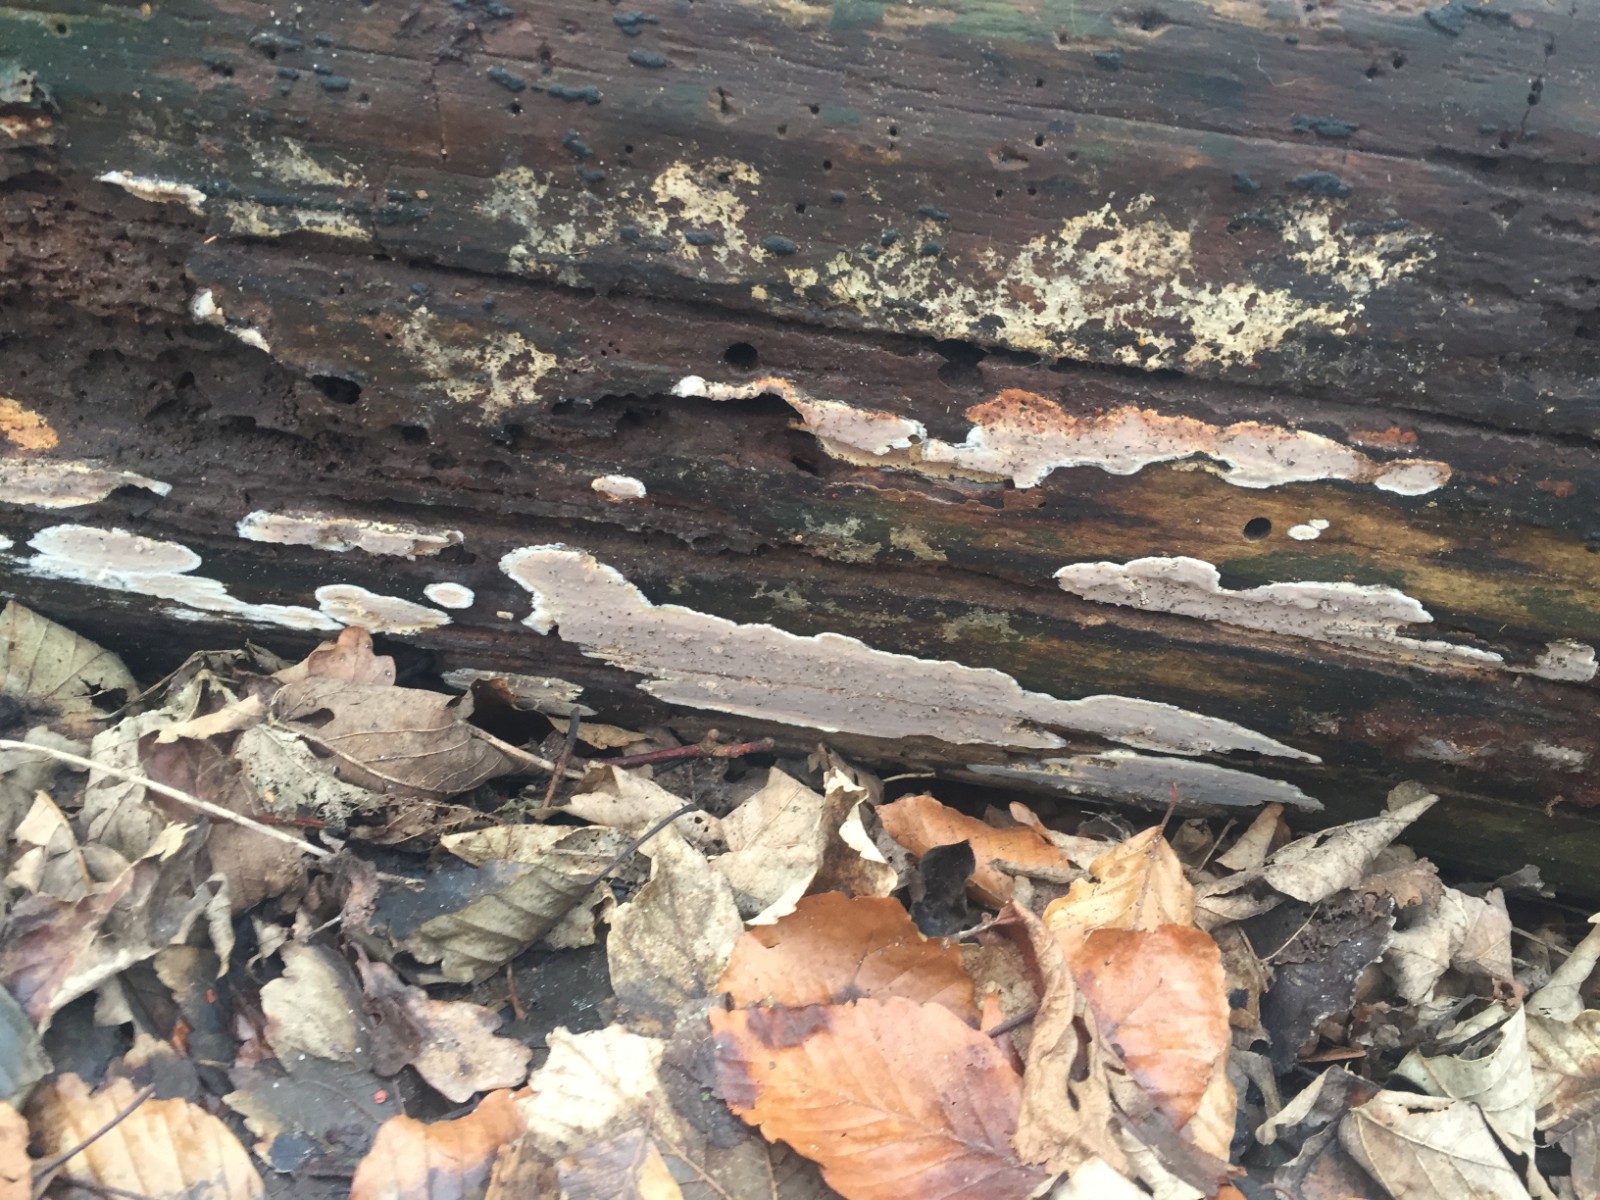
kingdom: Fungi
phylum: Basidiomycota
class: Agaricomycetes
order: Russulales
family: Peniophoraceae
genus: Scytinostroma
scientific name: Scytinostroma hemidichophyticum
